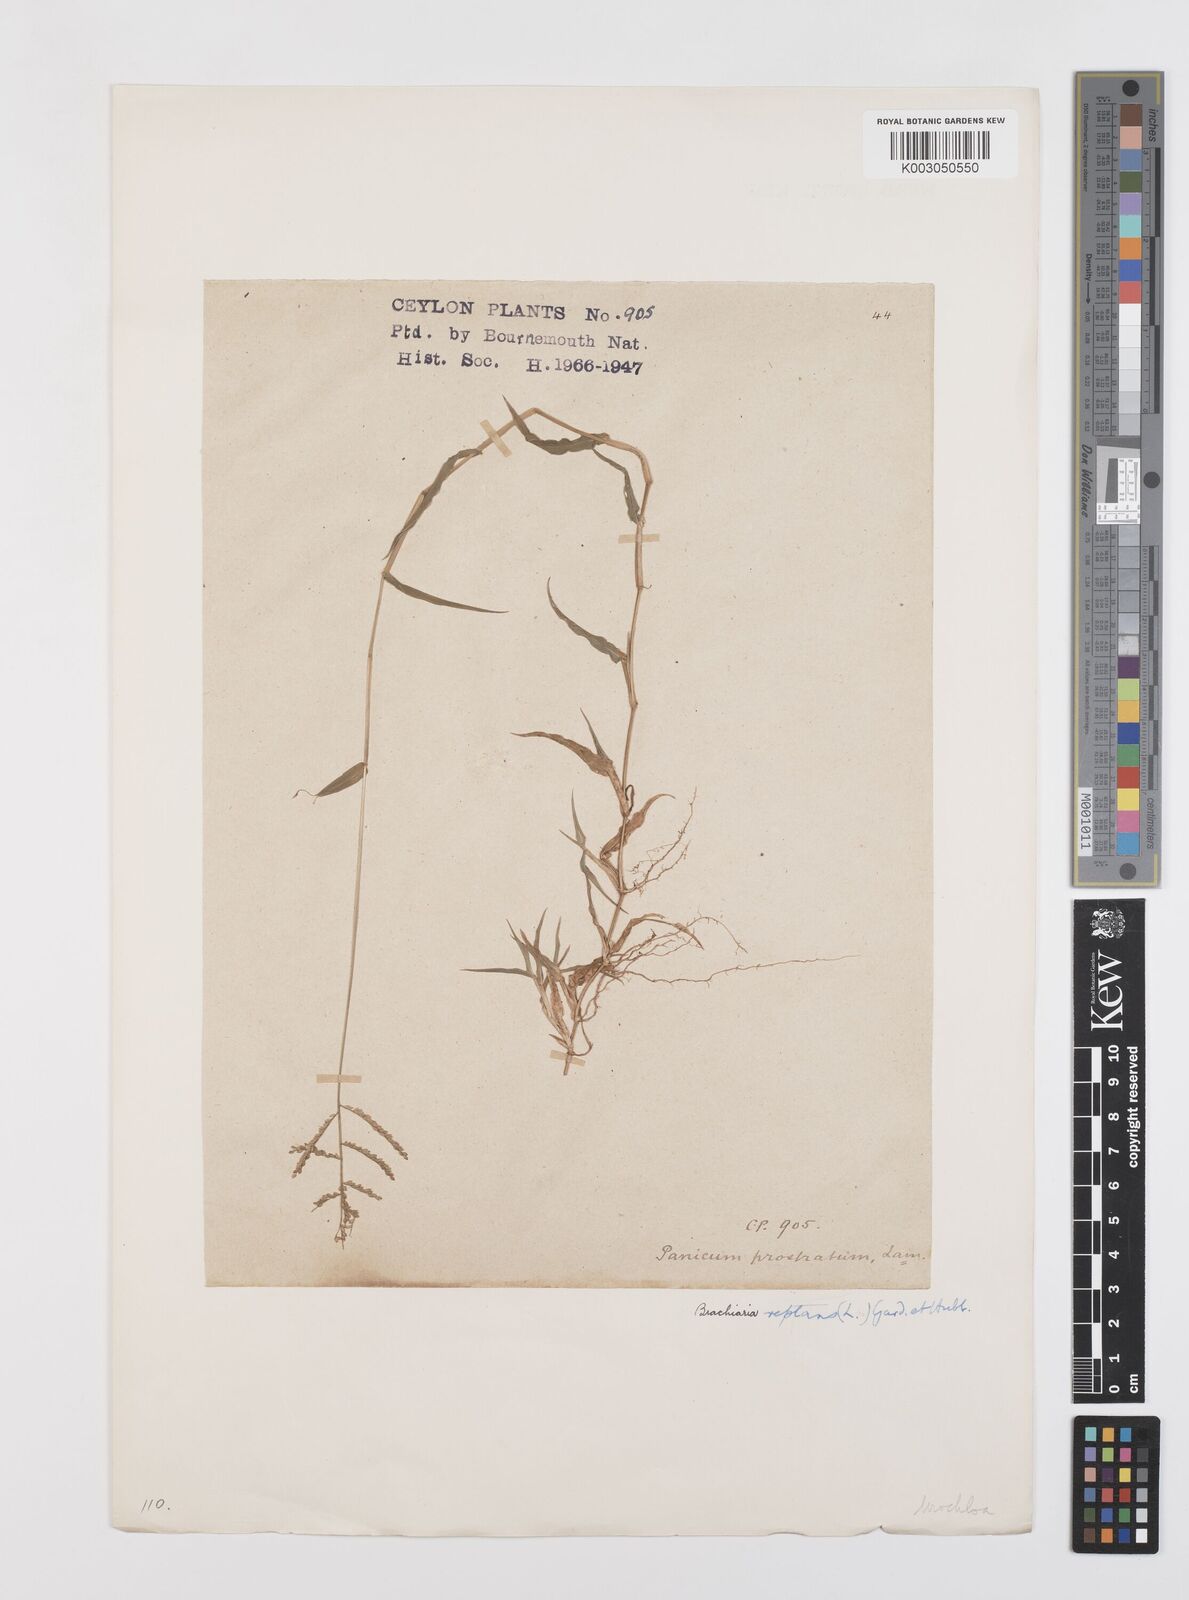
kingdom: Plantae
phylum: Tracheophyta
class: Liliopsida
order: Poales
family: Poaceae
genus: Urochloa
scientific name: Urochloa reptans
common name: Sprawling signalgrass
